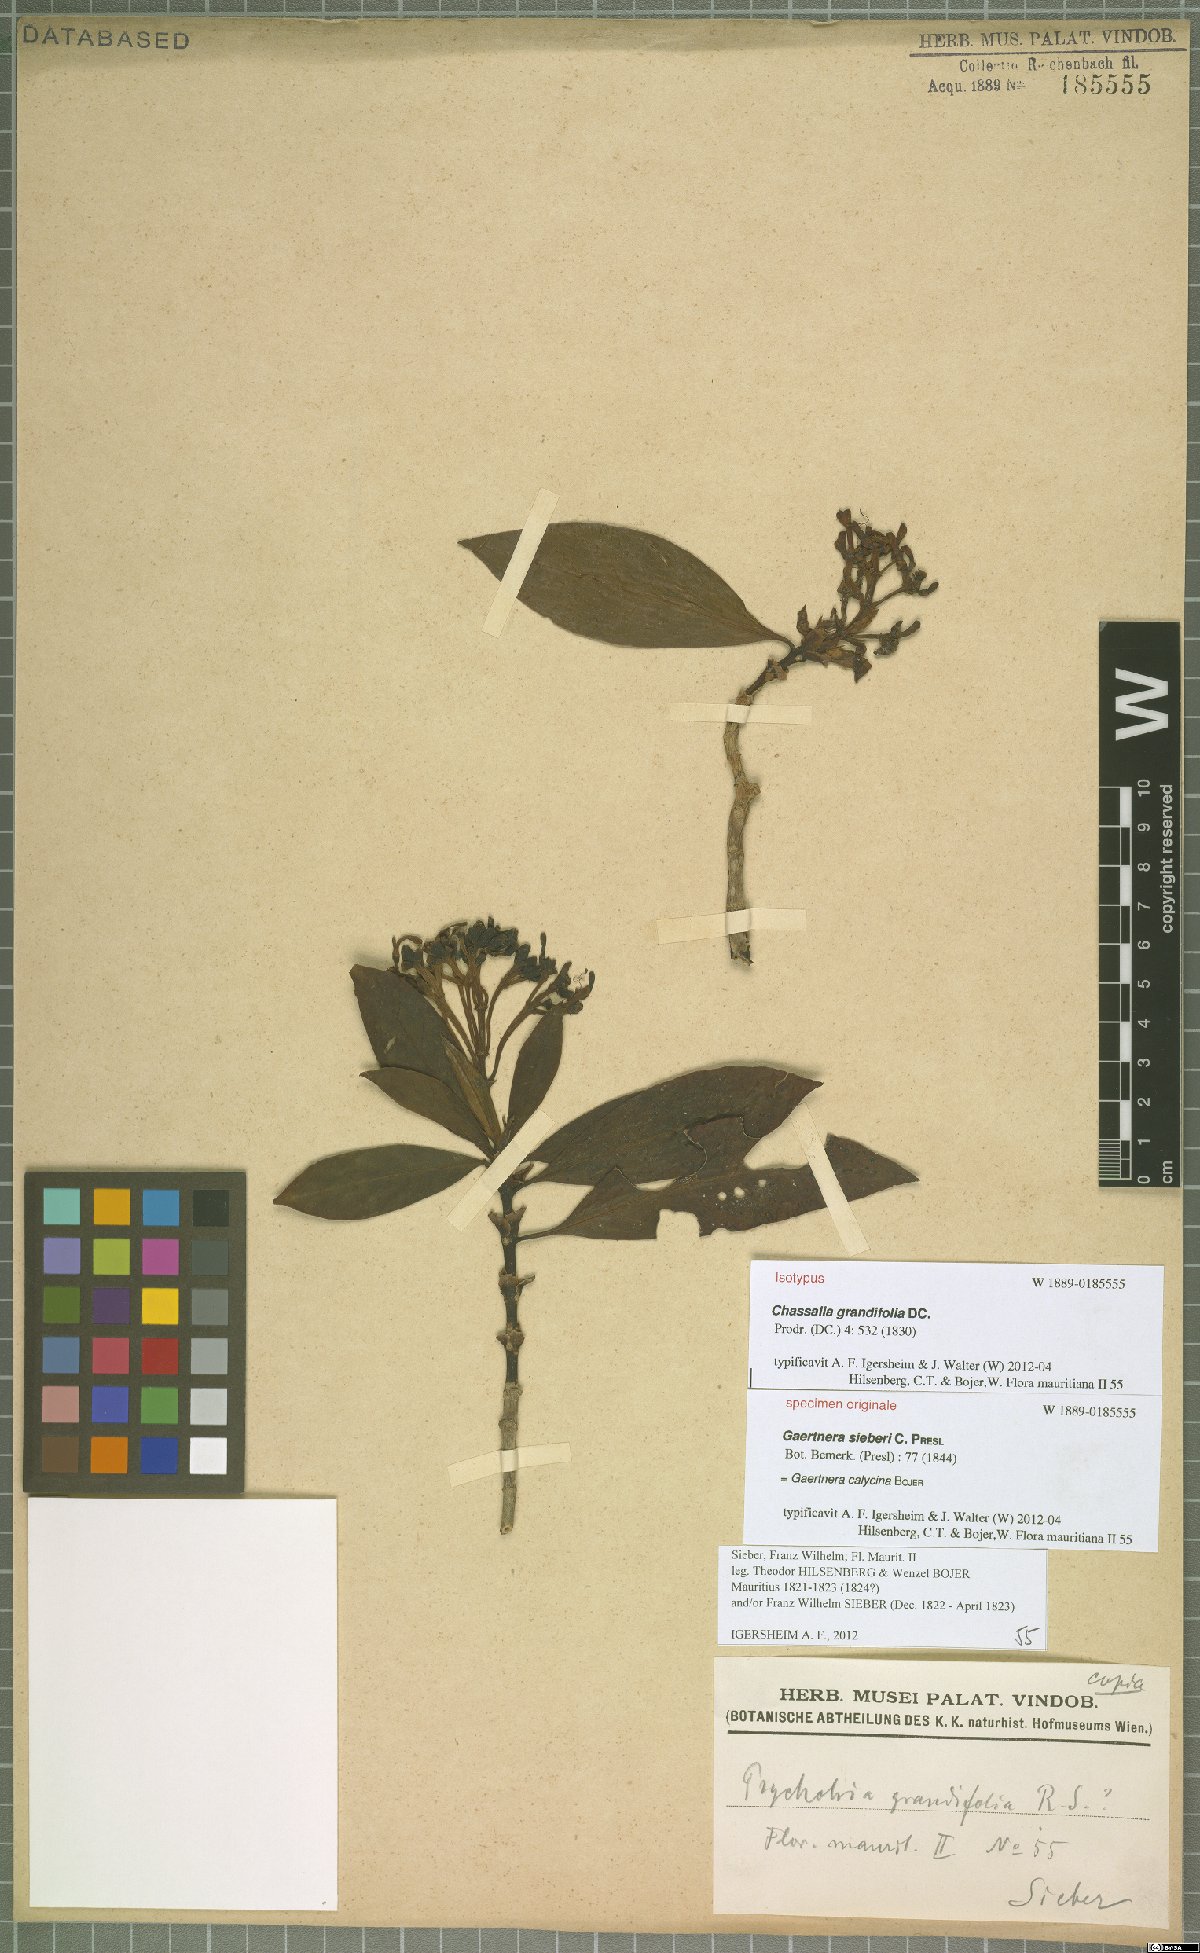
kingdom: Plantae
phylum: Tracheophyta
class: Magnoliopsida
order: Gentianales
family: Rubiaceae
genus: Chassalia
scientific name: Chassalia grandifolia
